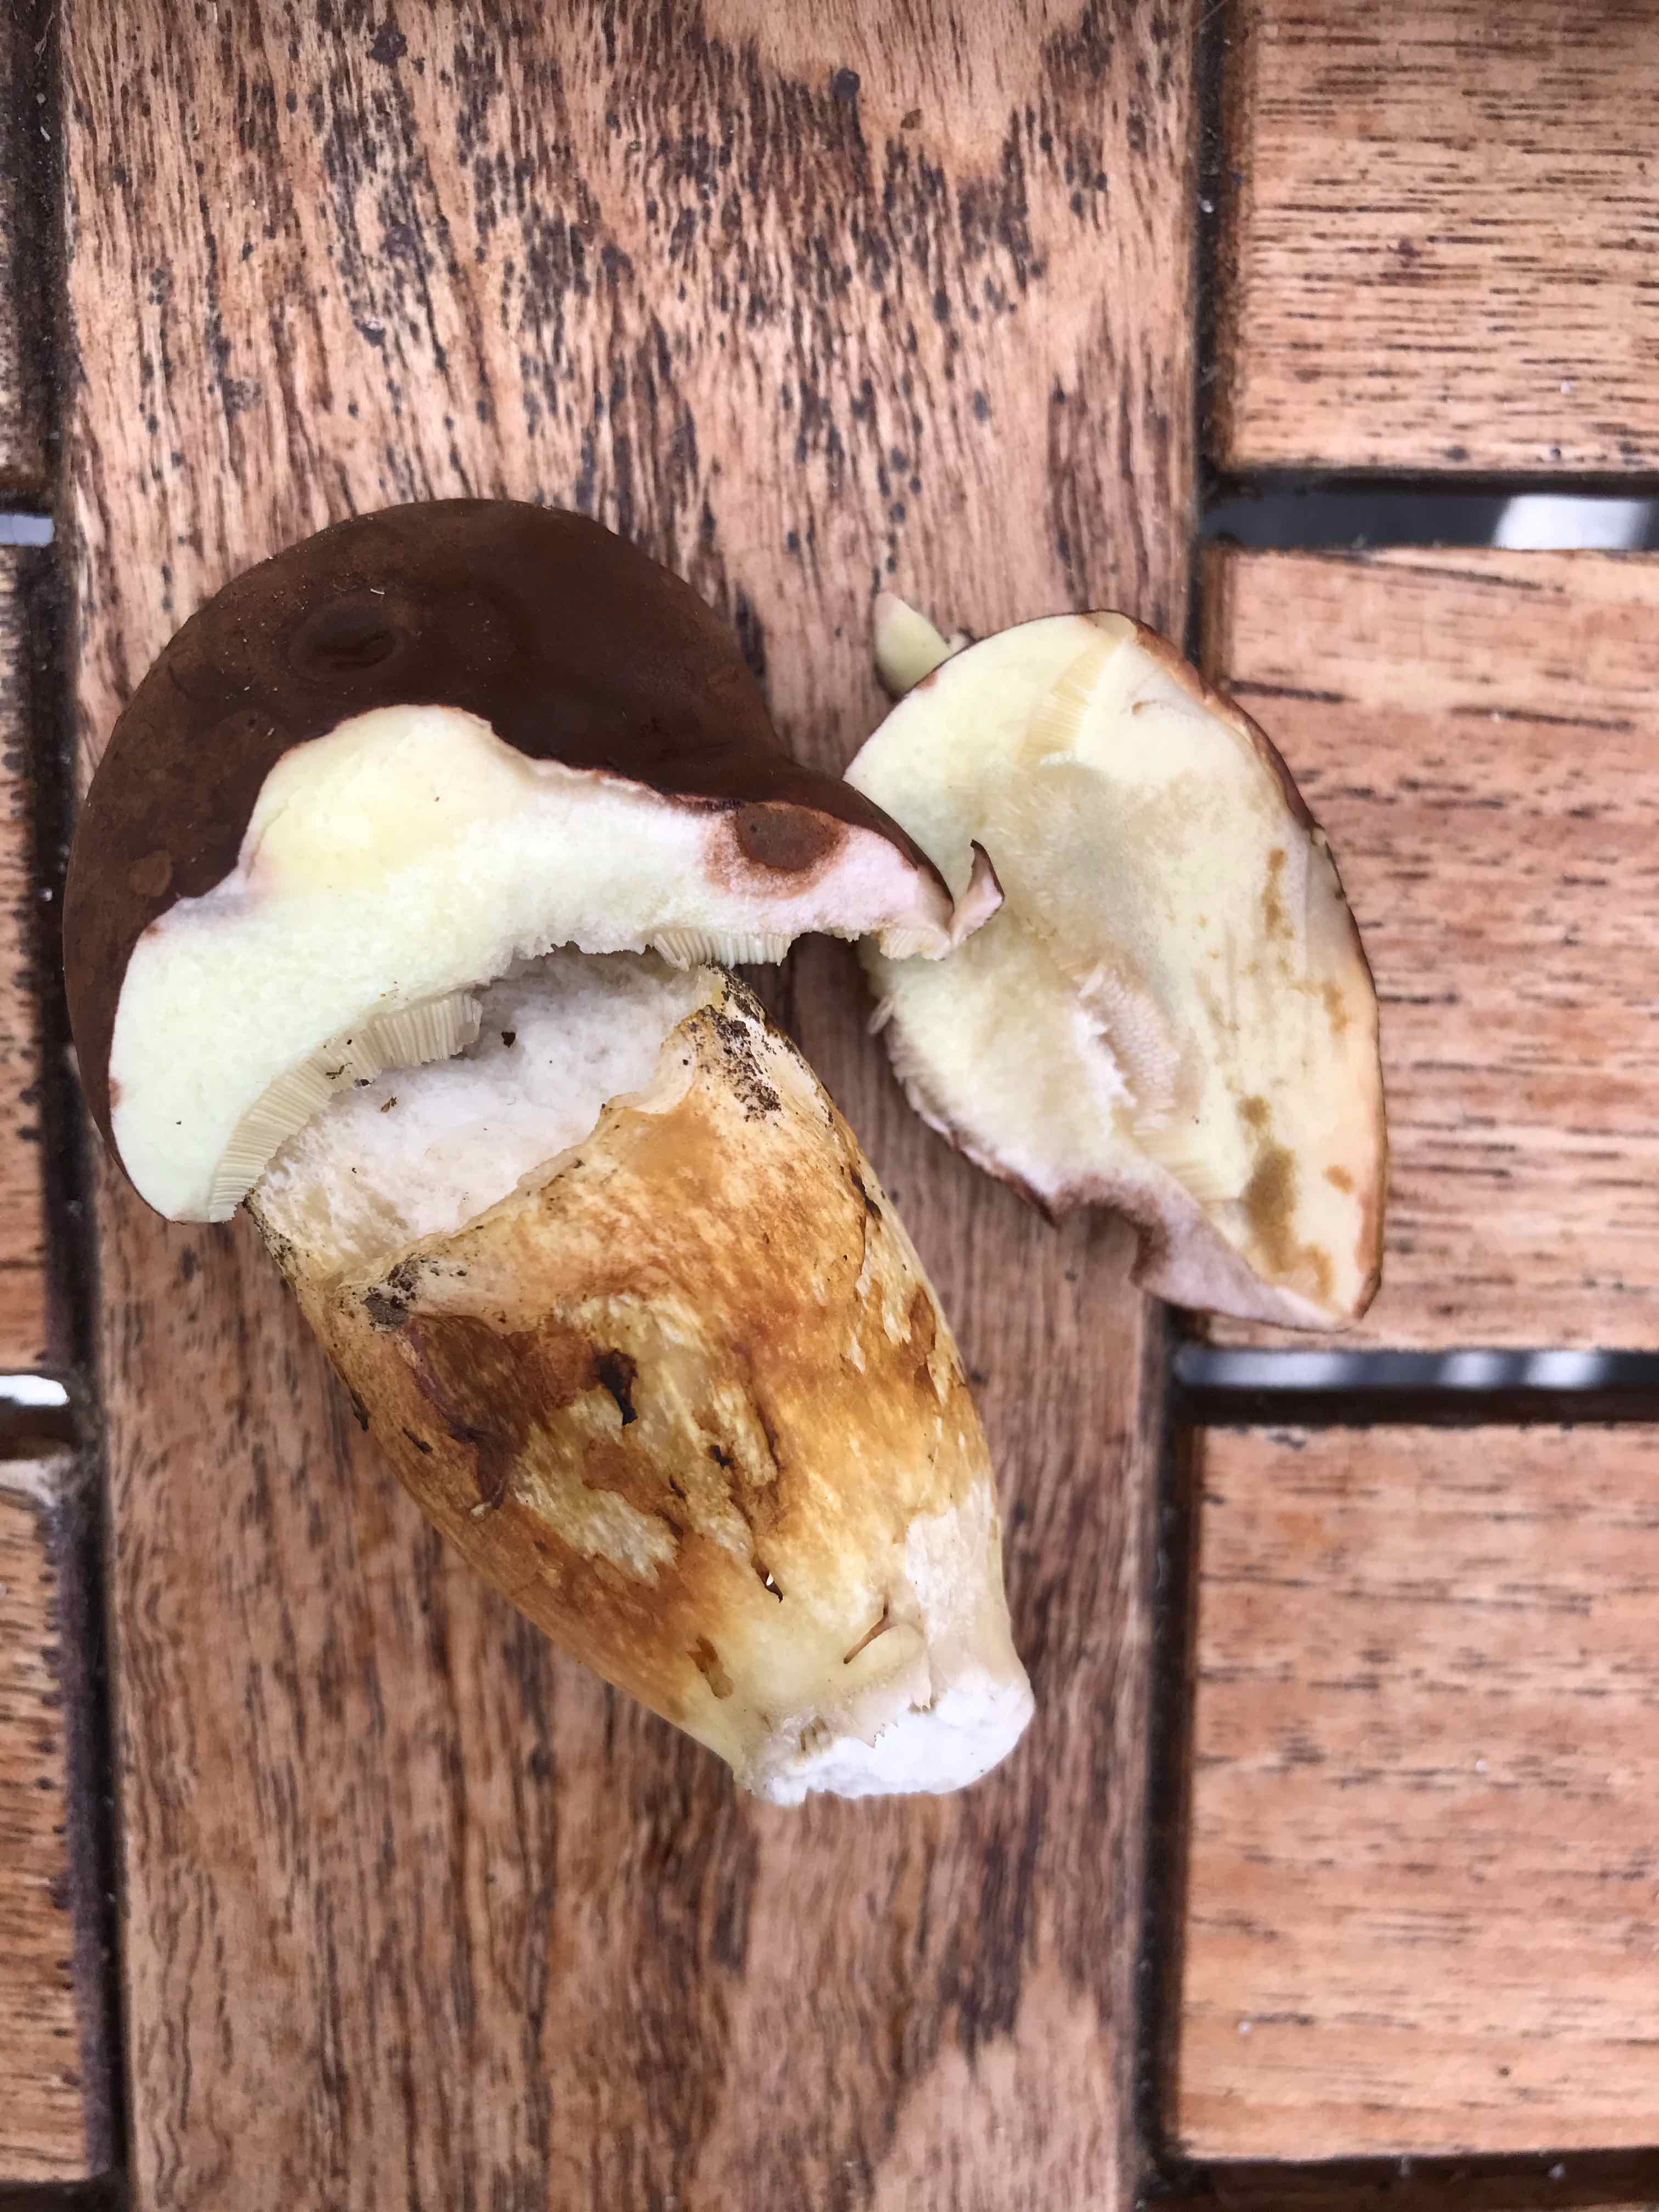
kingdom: Fungi
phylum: Basidiomycota
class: Agaricomycetes
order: Boletales
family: Boletaceae
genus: Imleria
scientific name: Imleria badia
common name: brunstokket rørhat
